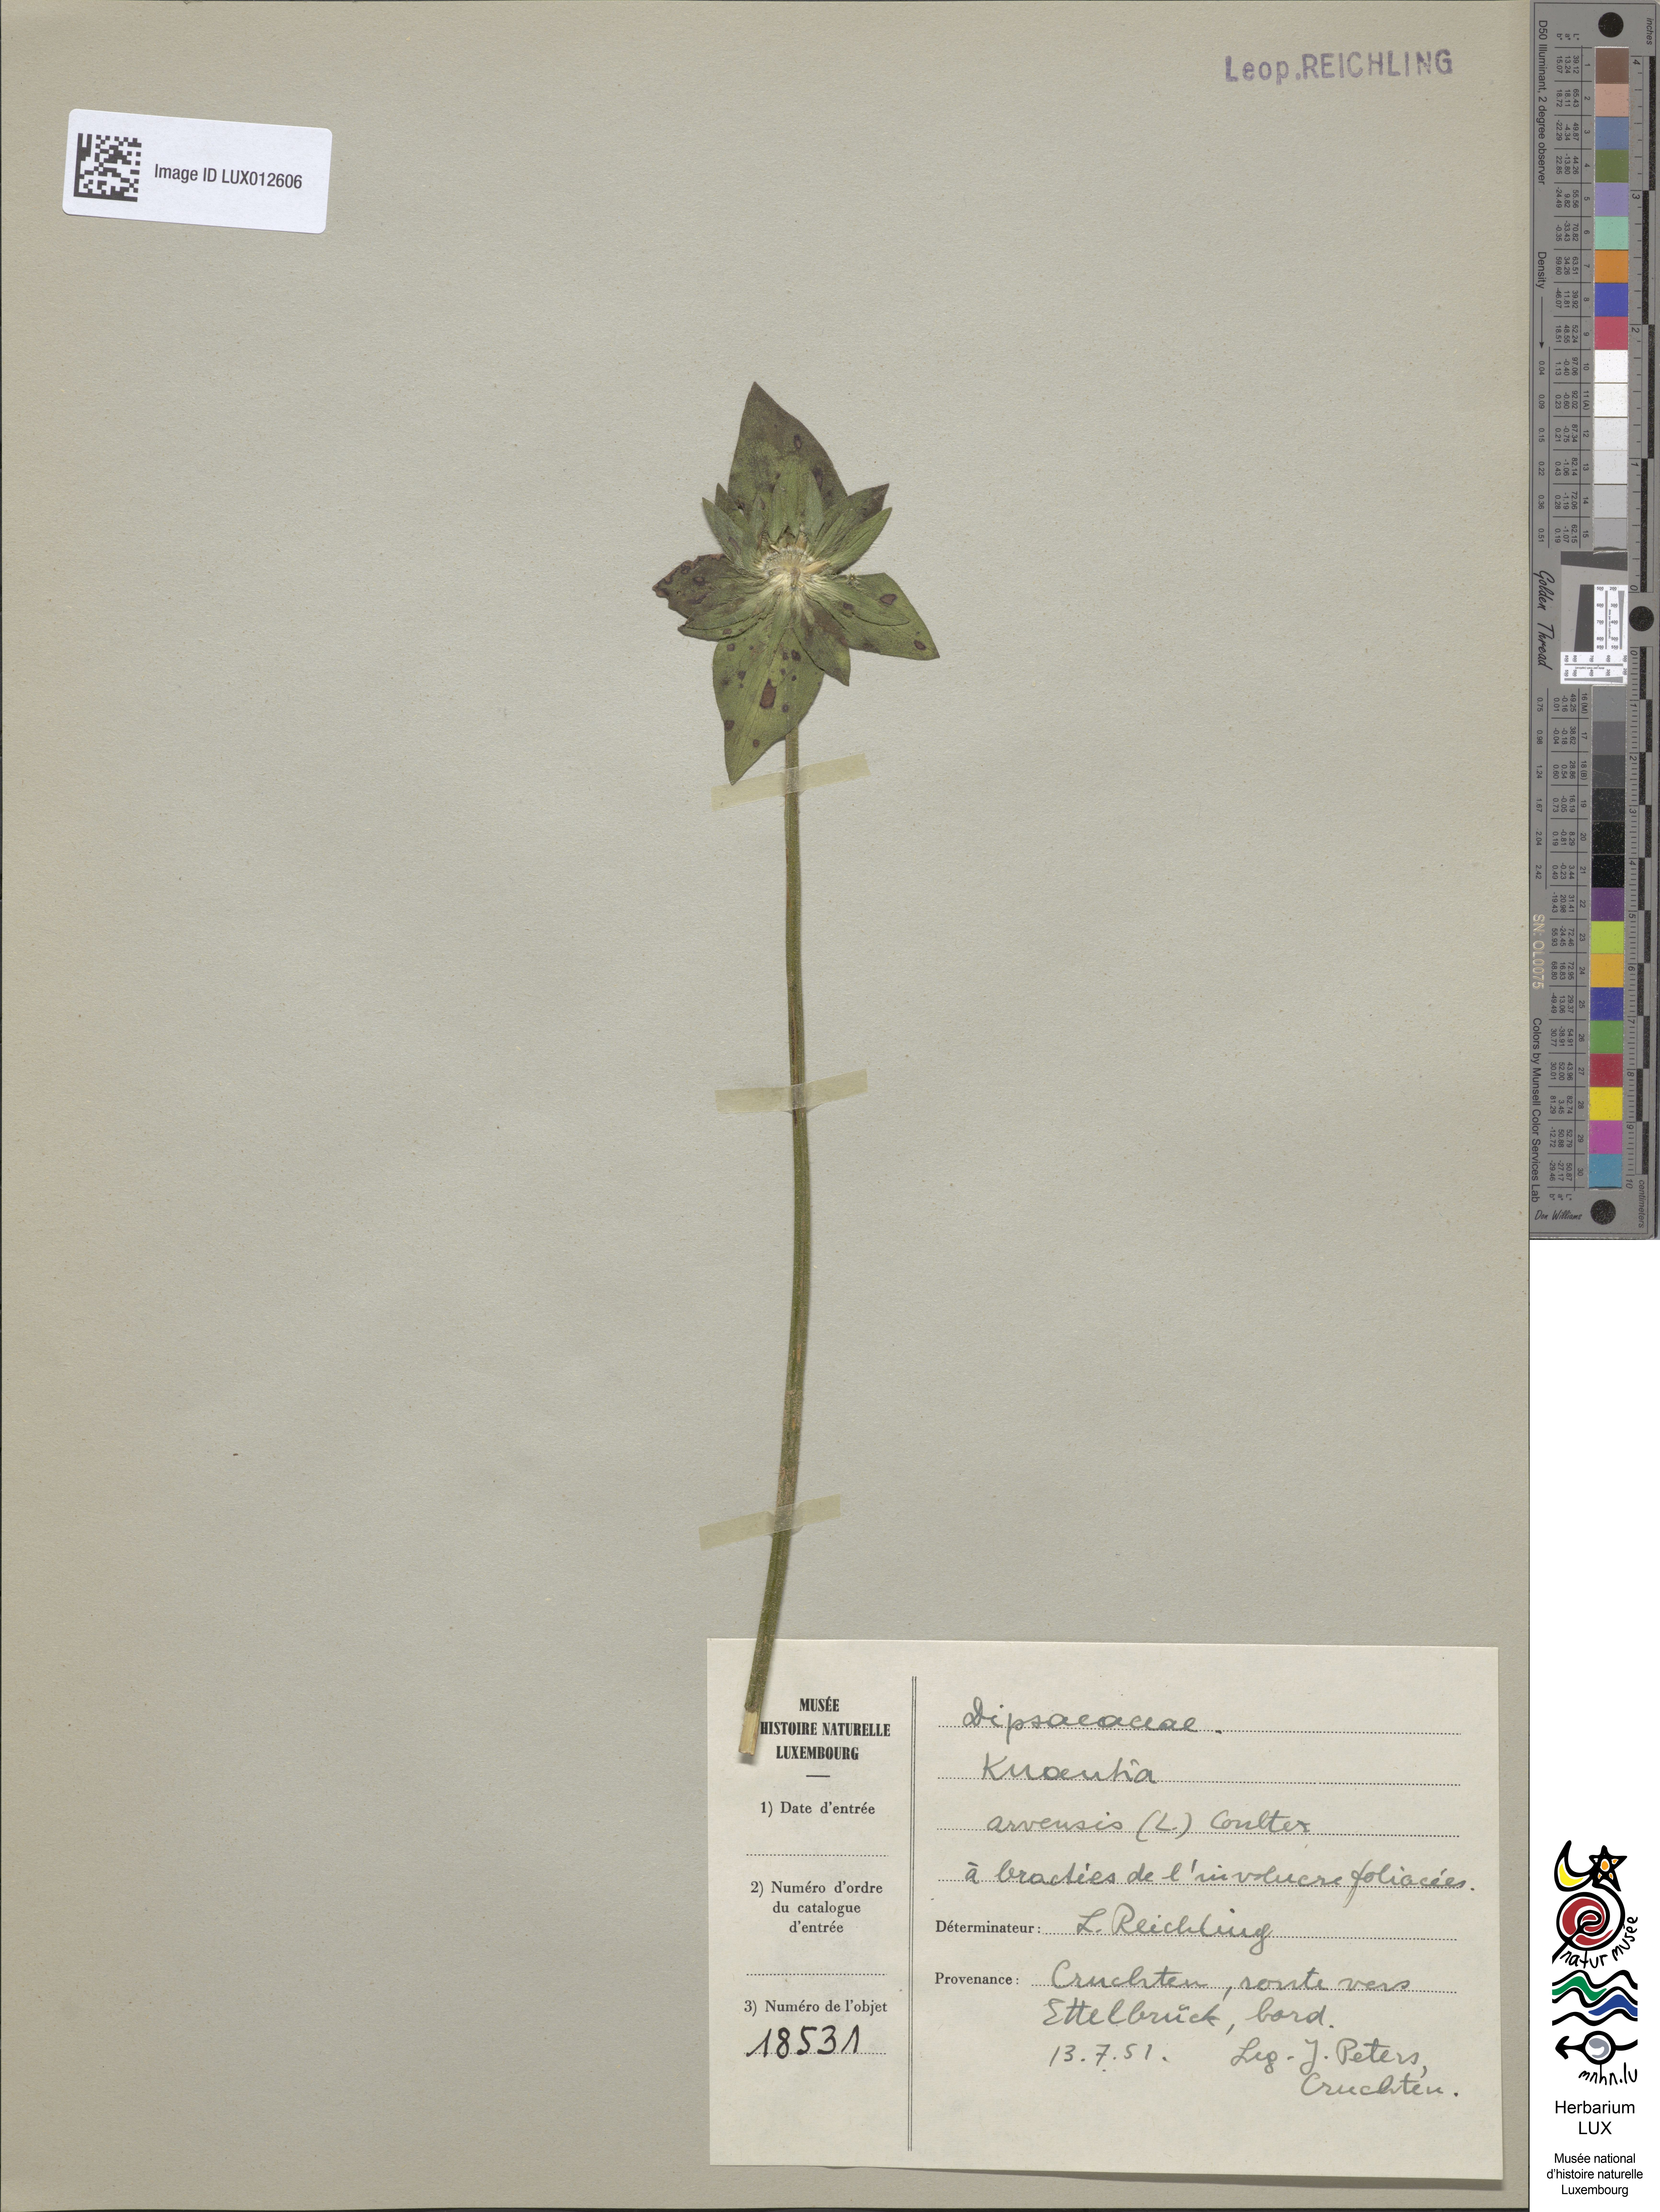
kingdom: Plantae
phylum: Tracheophyta
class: Magnoliopsida
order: Dipsacales
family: Caprifoliaceae
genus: Knautia
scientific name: Knautia arvensis
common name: Field scabiosa
